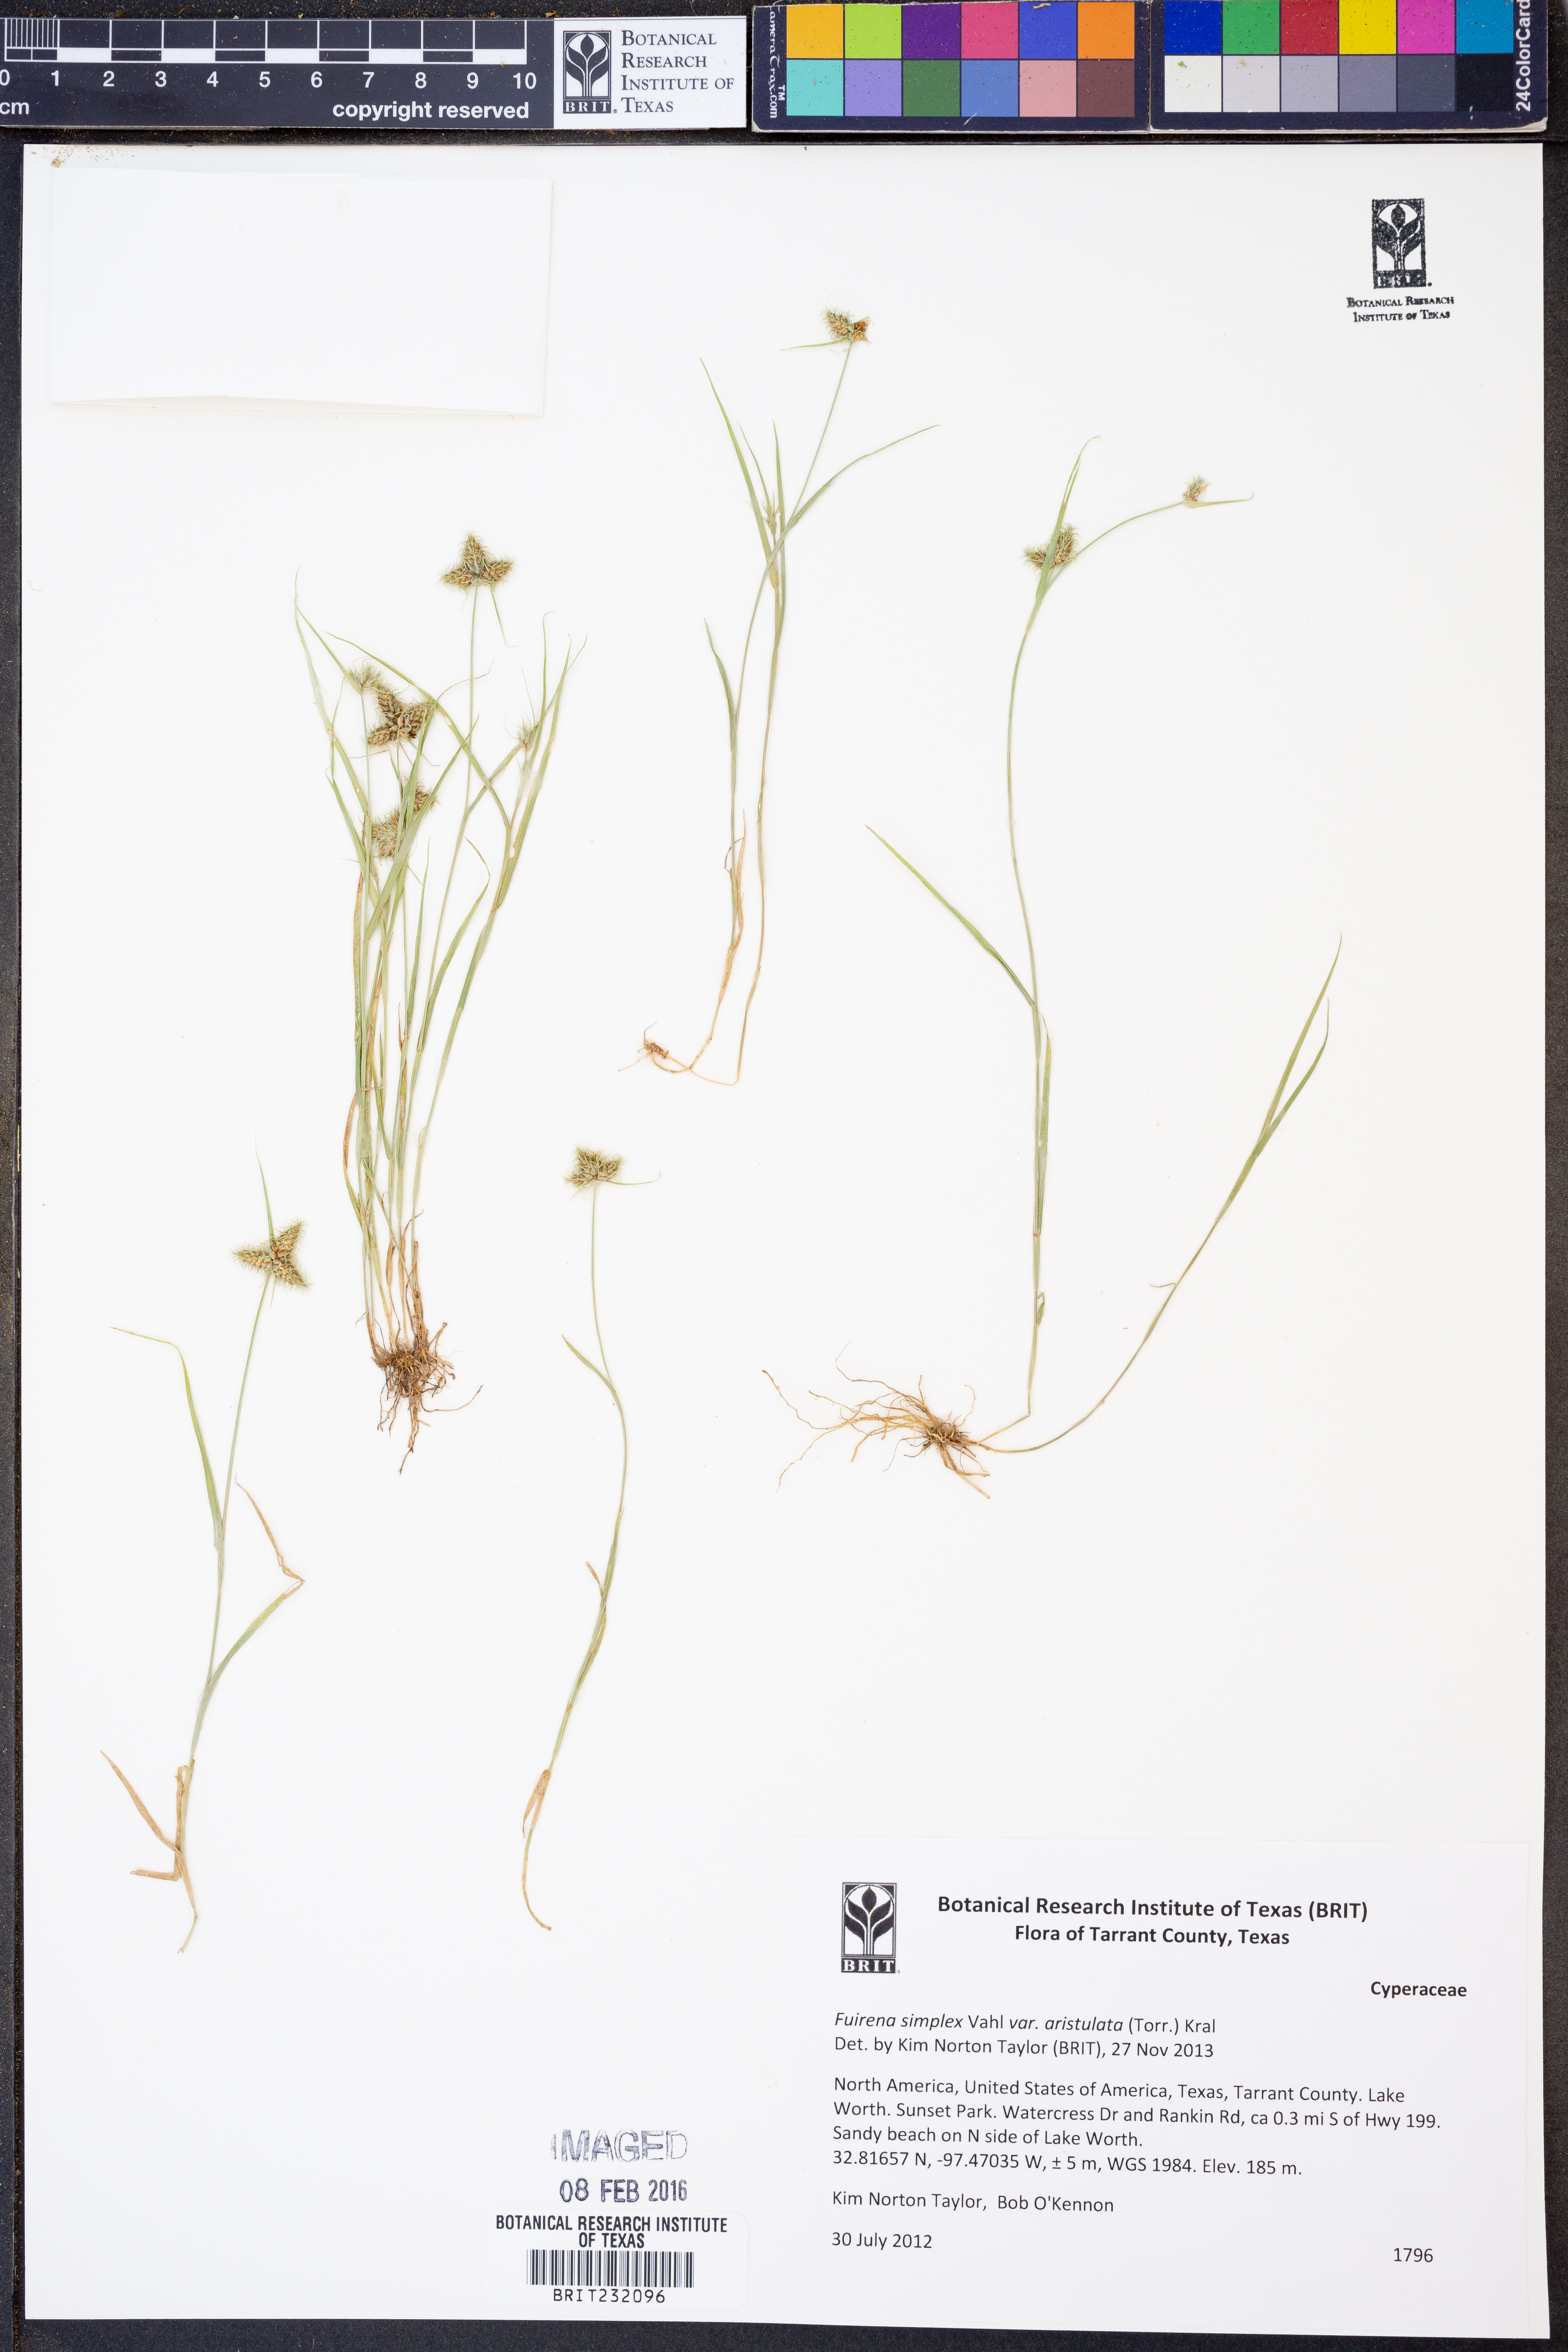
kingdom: Plantae
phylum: Tracheophyta
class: Liliopsida
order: Poales
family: Cyperaceae
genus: Fuirena
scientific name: Fuirena simplex
